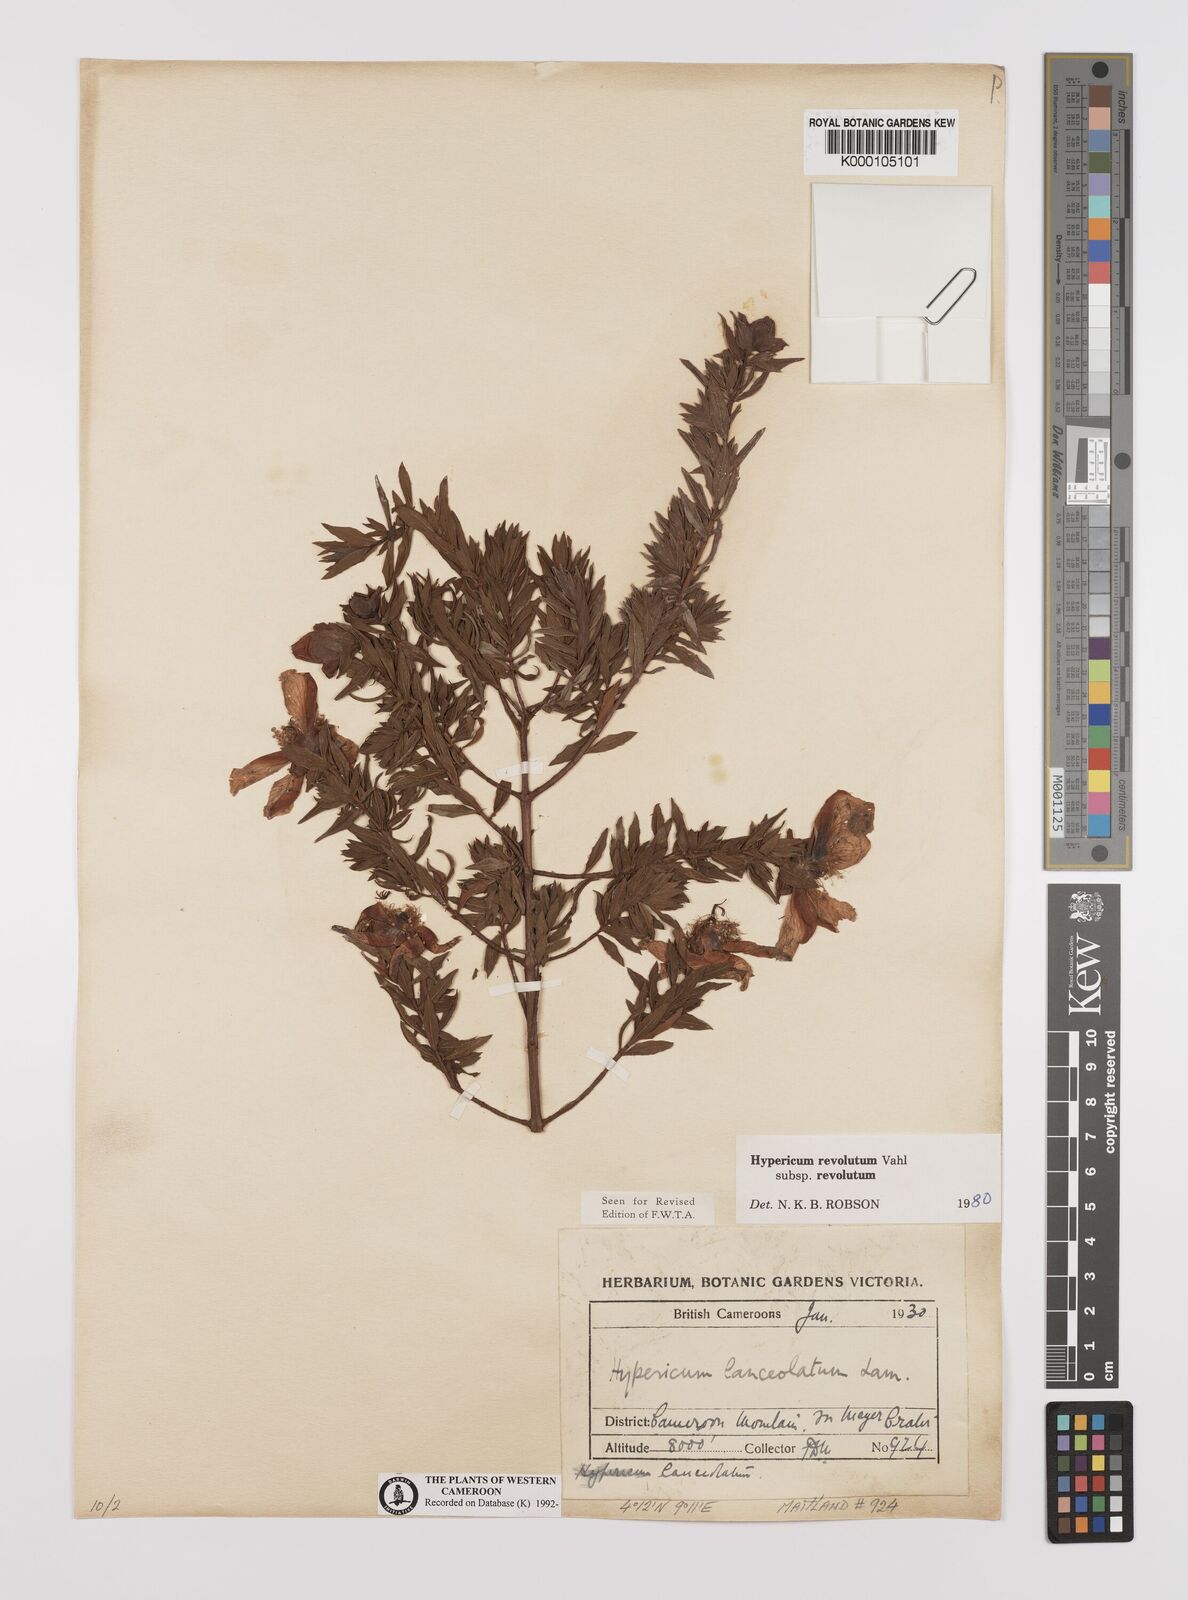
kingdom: Plantae
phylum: Tracheophyta
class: Magnoliopsida
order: Malpighiales
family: Hypericaceae
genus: Hypericum
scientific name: Hypericum revolutum
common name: Curry bush
